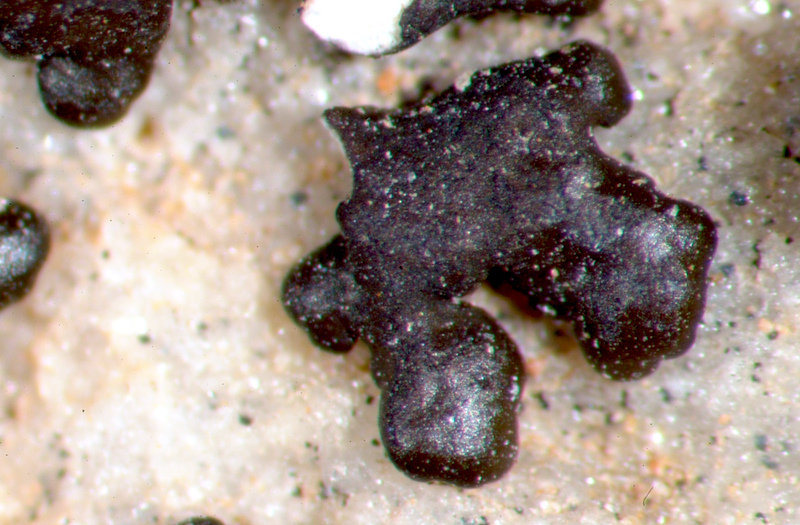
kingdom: Fungi
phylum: Ascomycota
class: Lecanoromycetes
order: Lecanorales
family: Parmeliaceae
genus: Neofuscelia
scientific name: Neofuscelia
